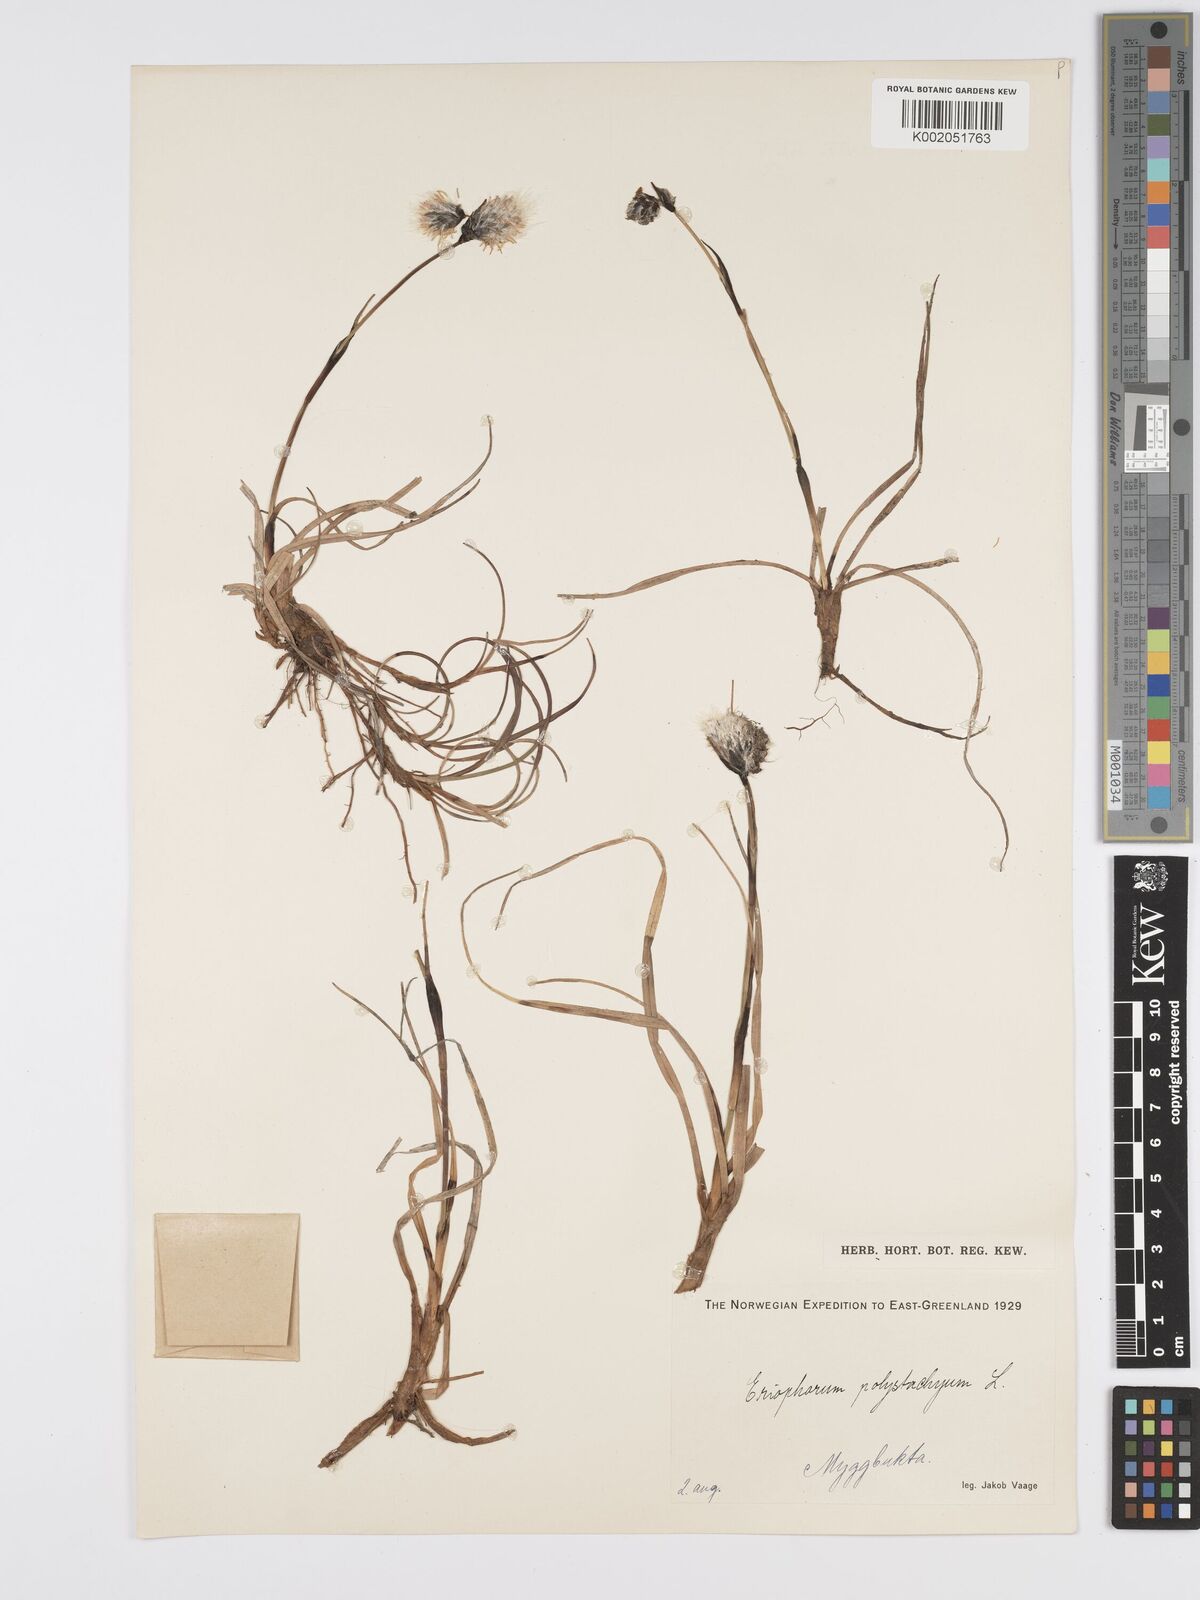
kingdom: Plantae
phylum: Tracheophyta
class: Liliopsida
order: Poales
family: Cyperaceae
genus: Eriophorum
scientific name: Eriophorum angustifolium
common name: Common cottongrass
